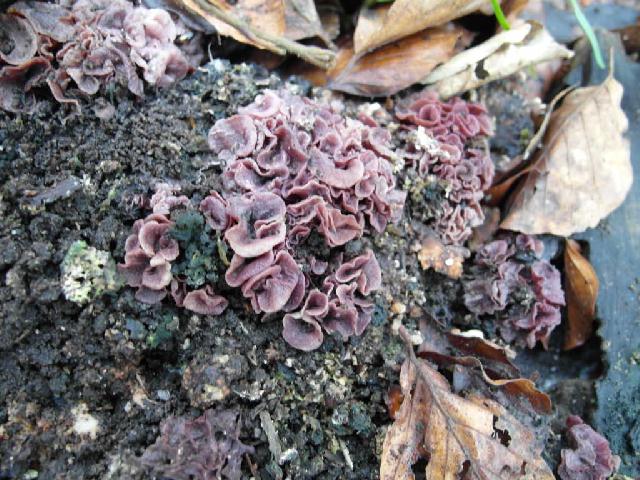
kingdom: Fungi
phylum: Ascomycota
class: Leotiomycetes
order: Helotiales
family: Gelatinodiscaceae
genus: Ascocoryne
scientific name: Ascocoryne cylichnium
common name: stor sejskive
